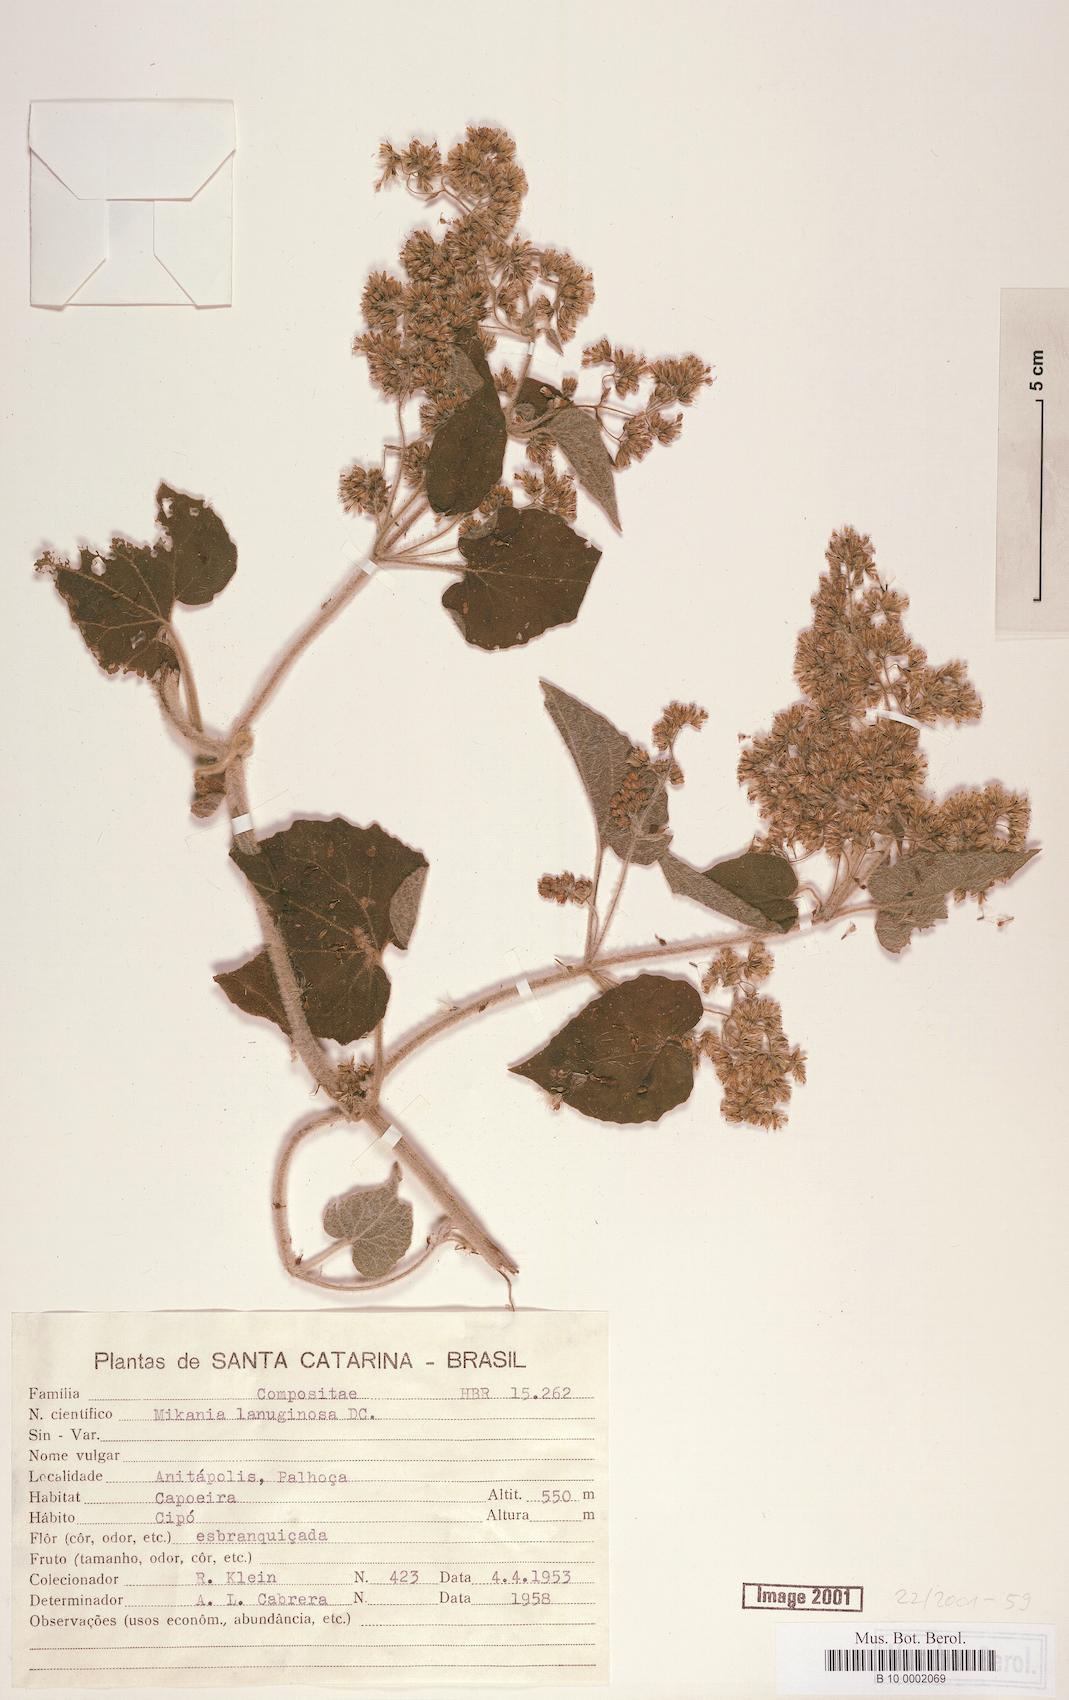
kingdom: Plantae
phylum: Tracheophyta
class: Magnoliopsida
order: Asterales
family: Asteraceae
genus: Mikania
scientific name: Mikania banisteriae
